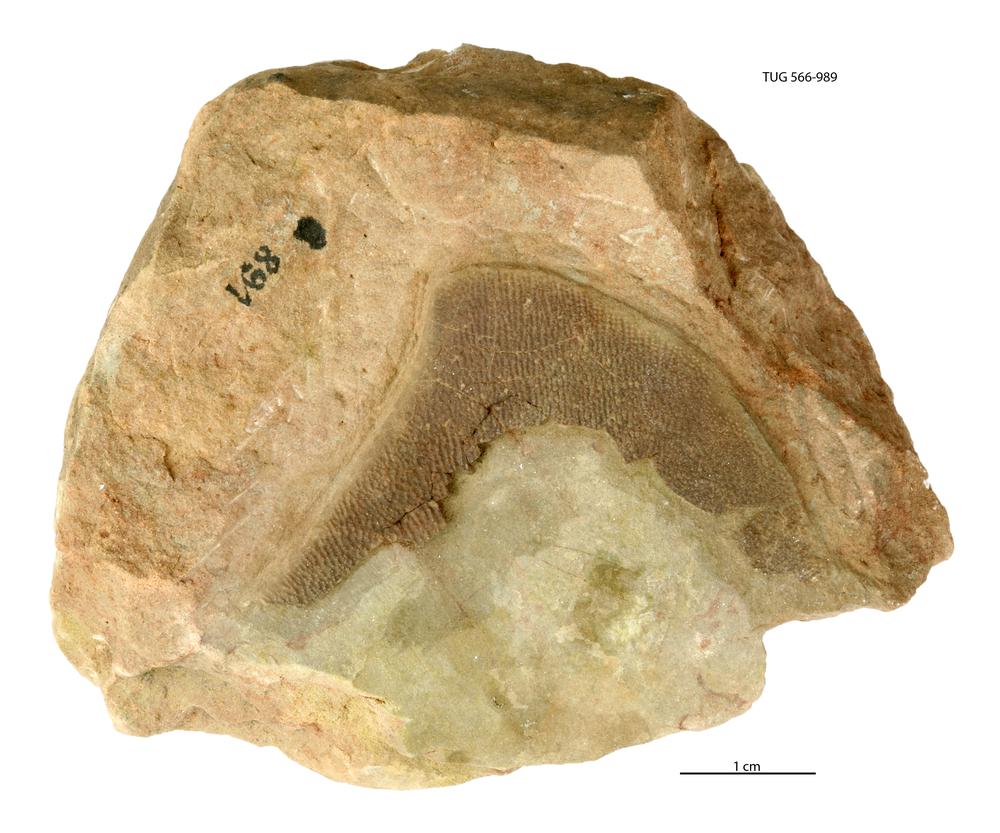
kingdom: Animalia
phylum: Chordata
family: Holonematidae
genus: Holonema
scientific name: Holonema
